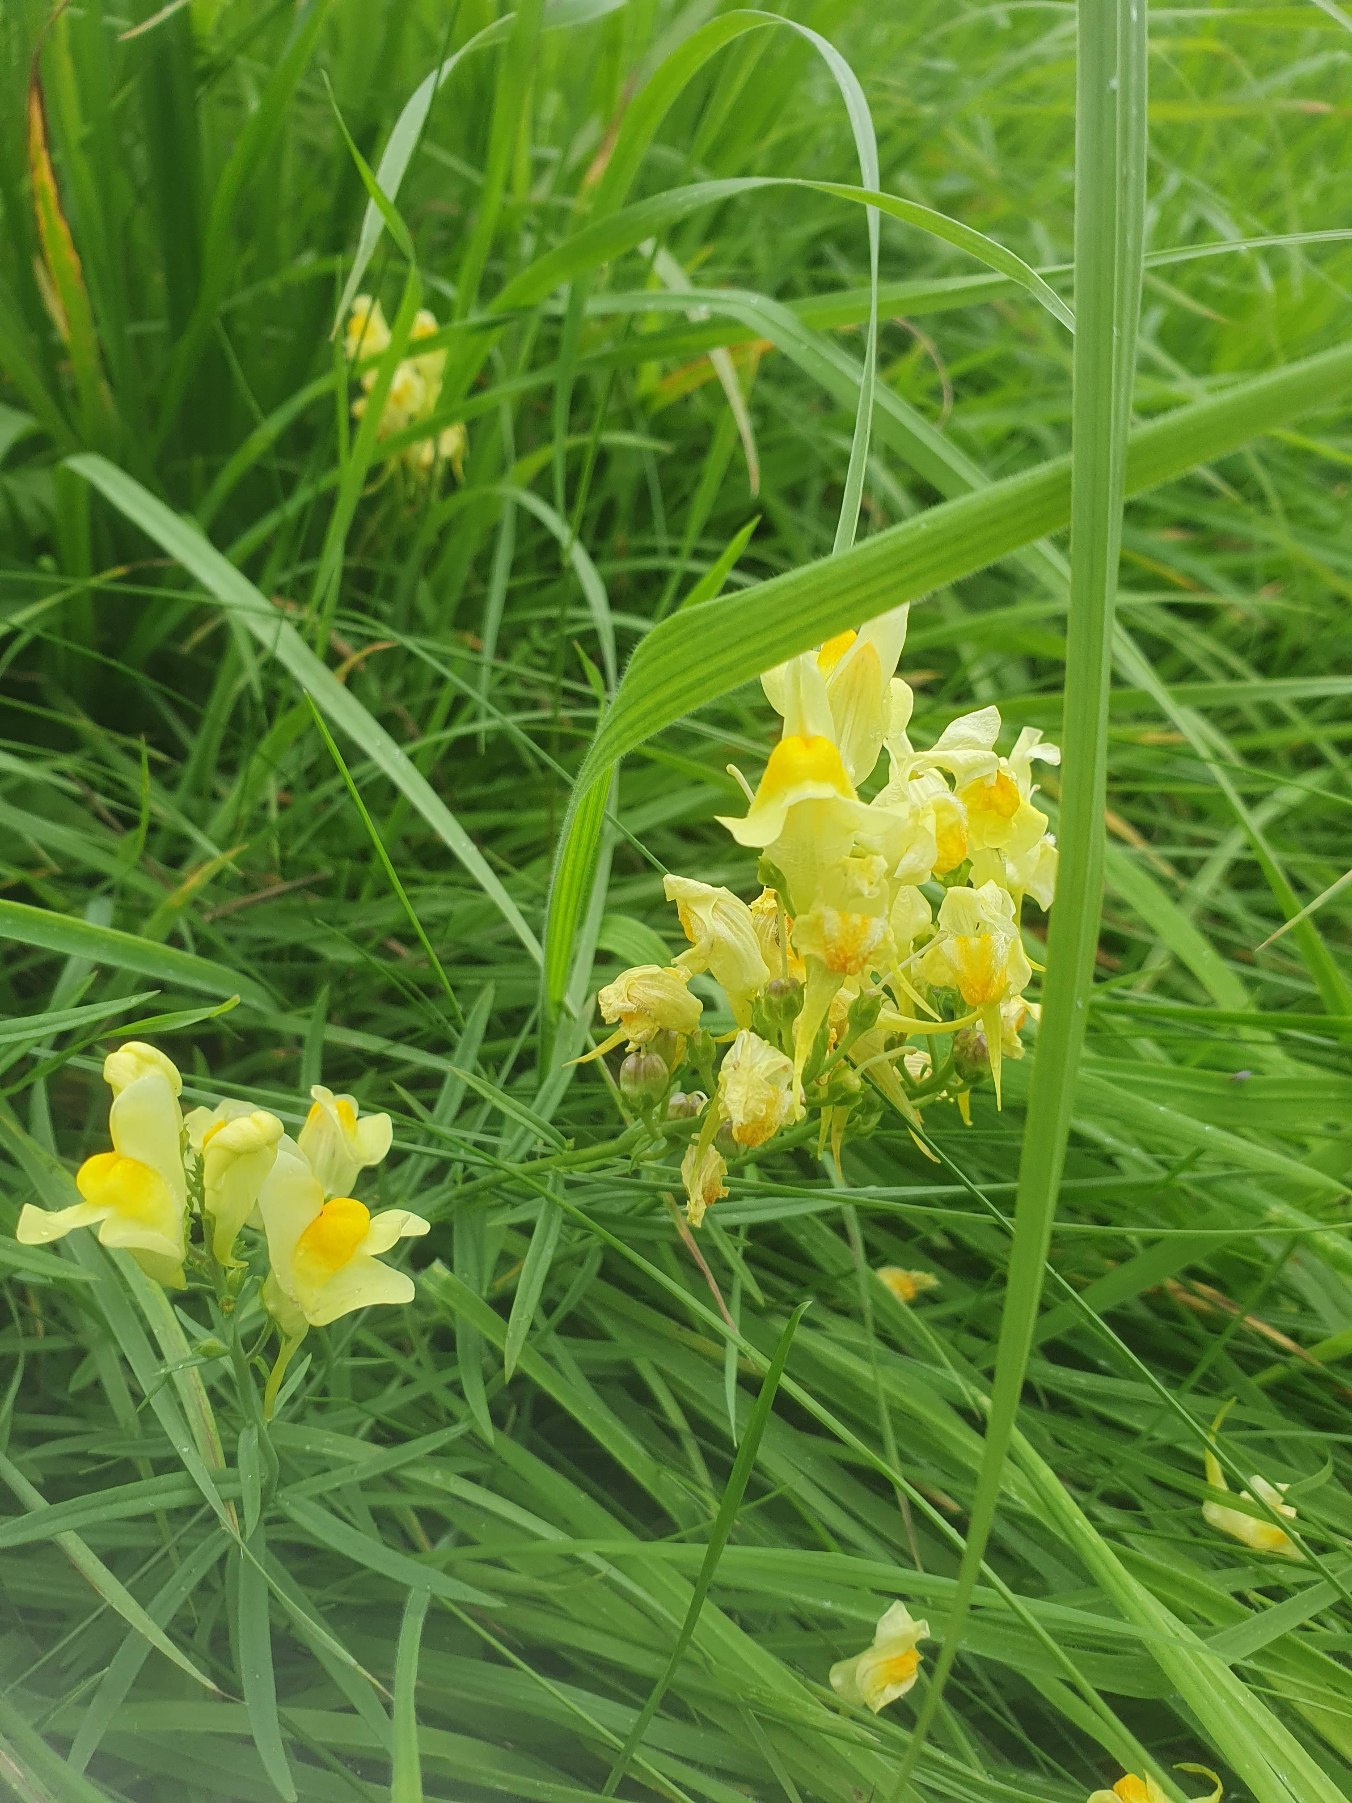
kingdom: Plantae
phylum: Tracheophyta
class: Magnoliopsida
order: Lamiales
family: Plantaginaceae
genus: Linaria
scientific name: Linaria vulgaris
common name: Almindelig torskemund
